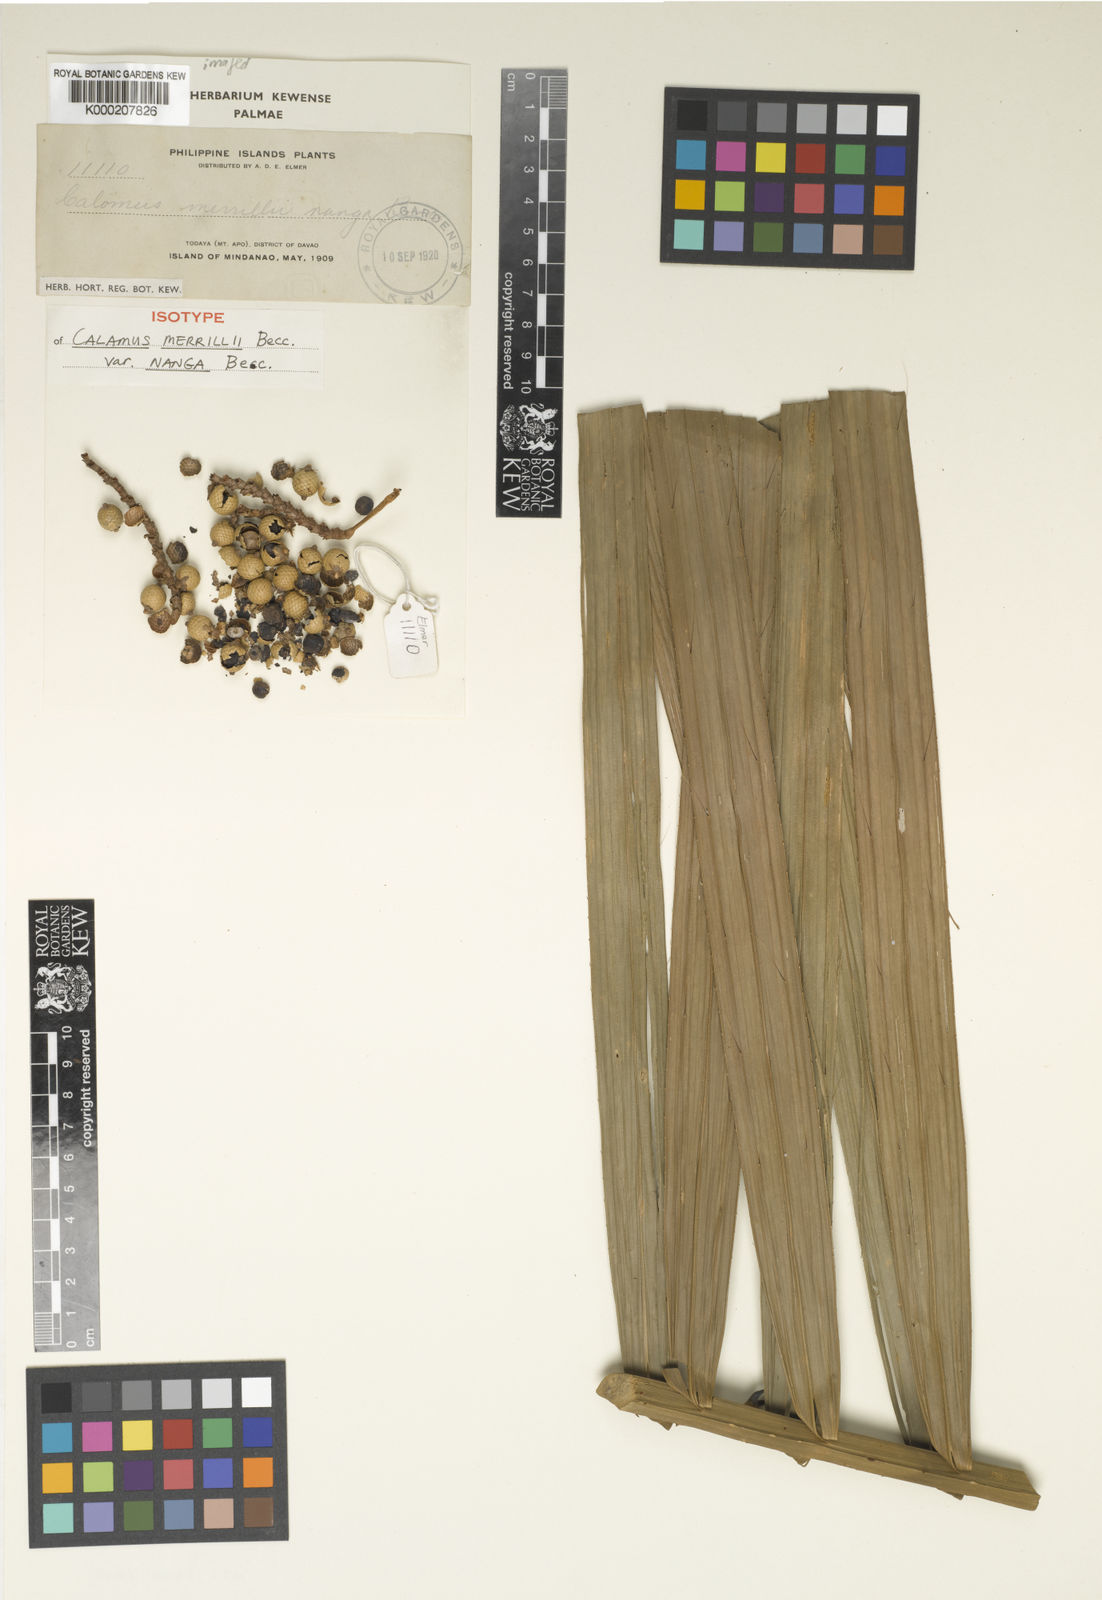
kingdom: Plantae
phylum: Tracheophyta
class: Liliopsida
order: Arecales
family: Arecaceae
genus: Calamus
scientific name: Calamus zollingeri
